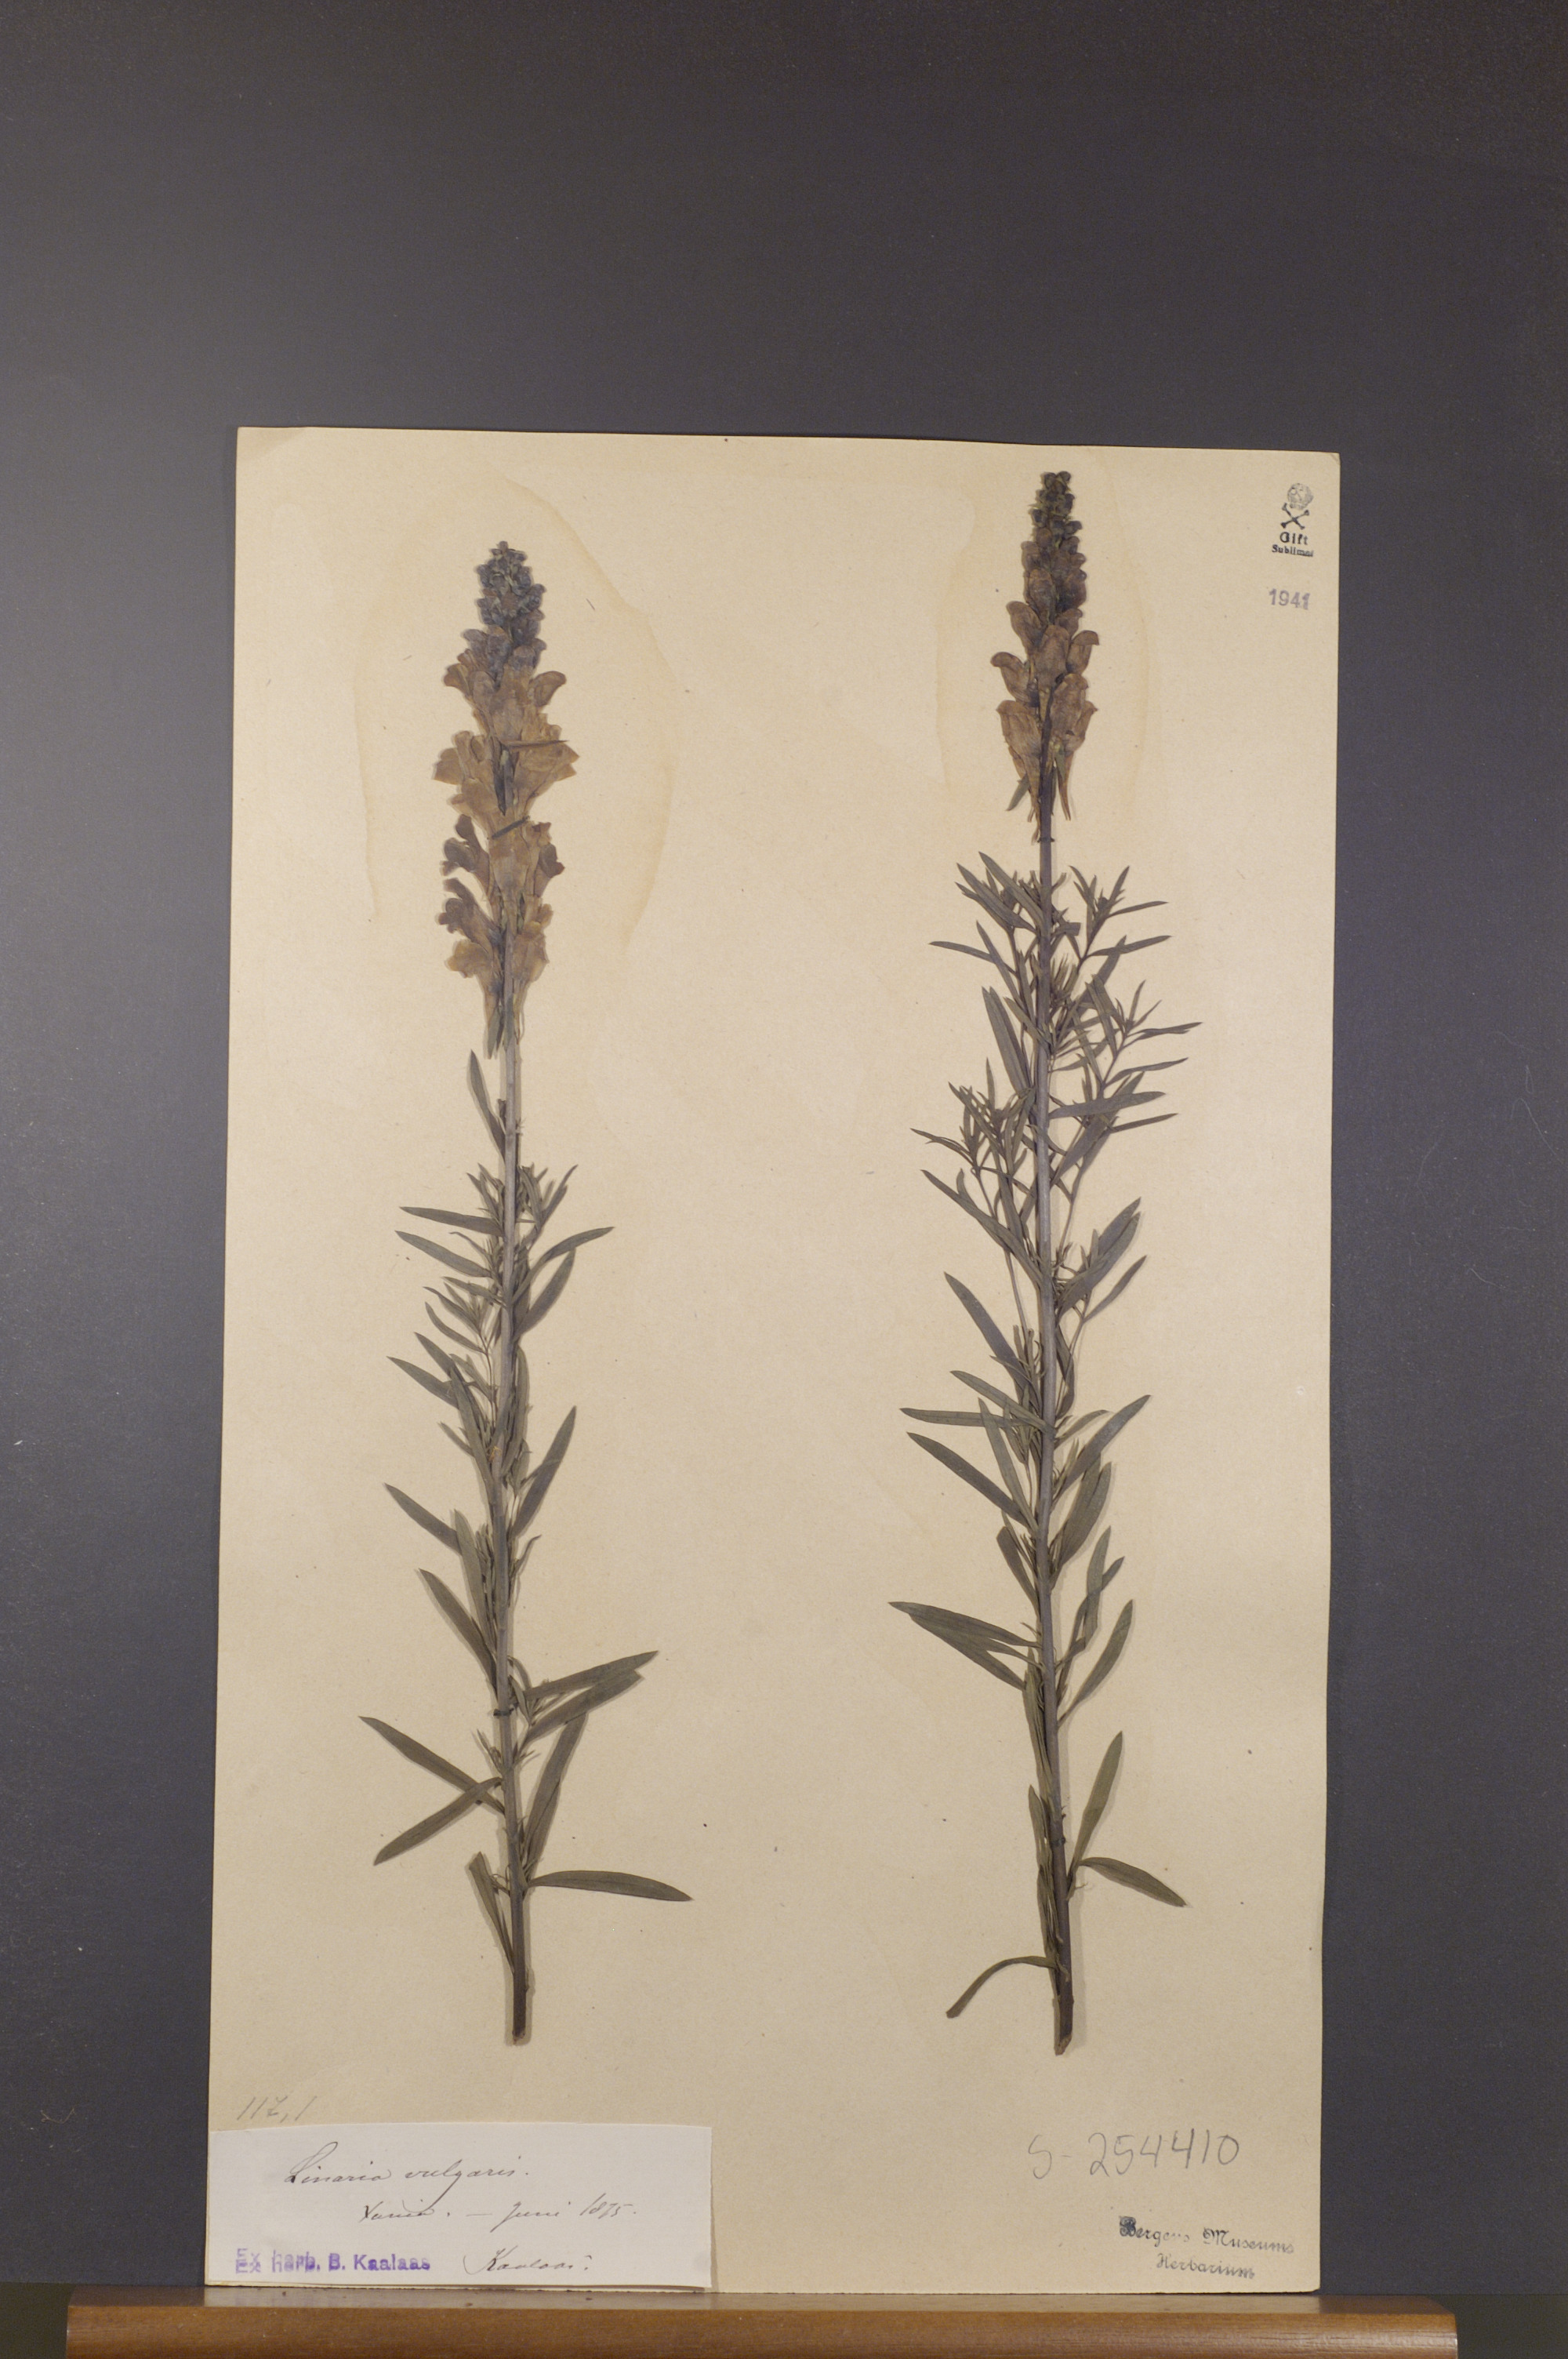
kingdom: Plantae
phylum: Tracheophyta
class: Magnoliopsida
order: Lamiales
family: Plantaginaceae
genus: Linaria
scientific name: Linaria vulgaris
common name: Butter and eggs
